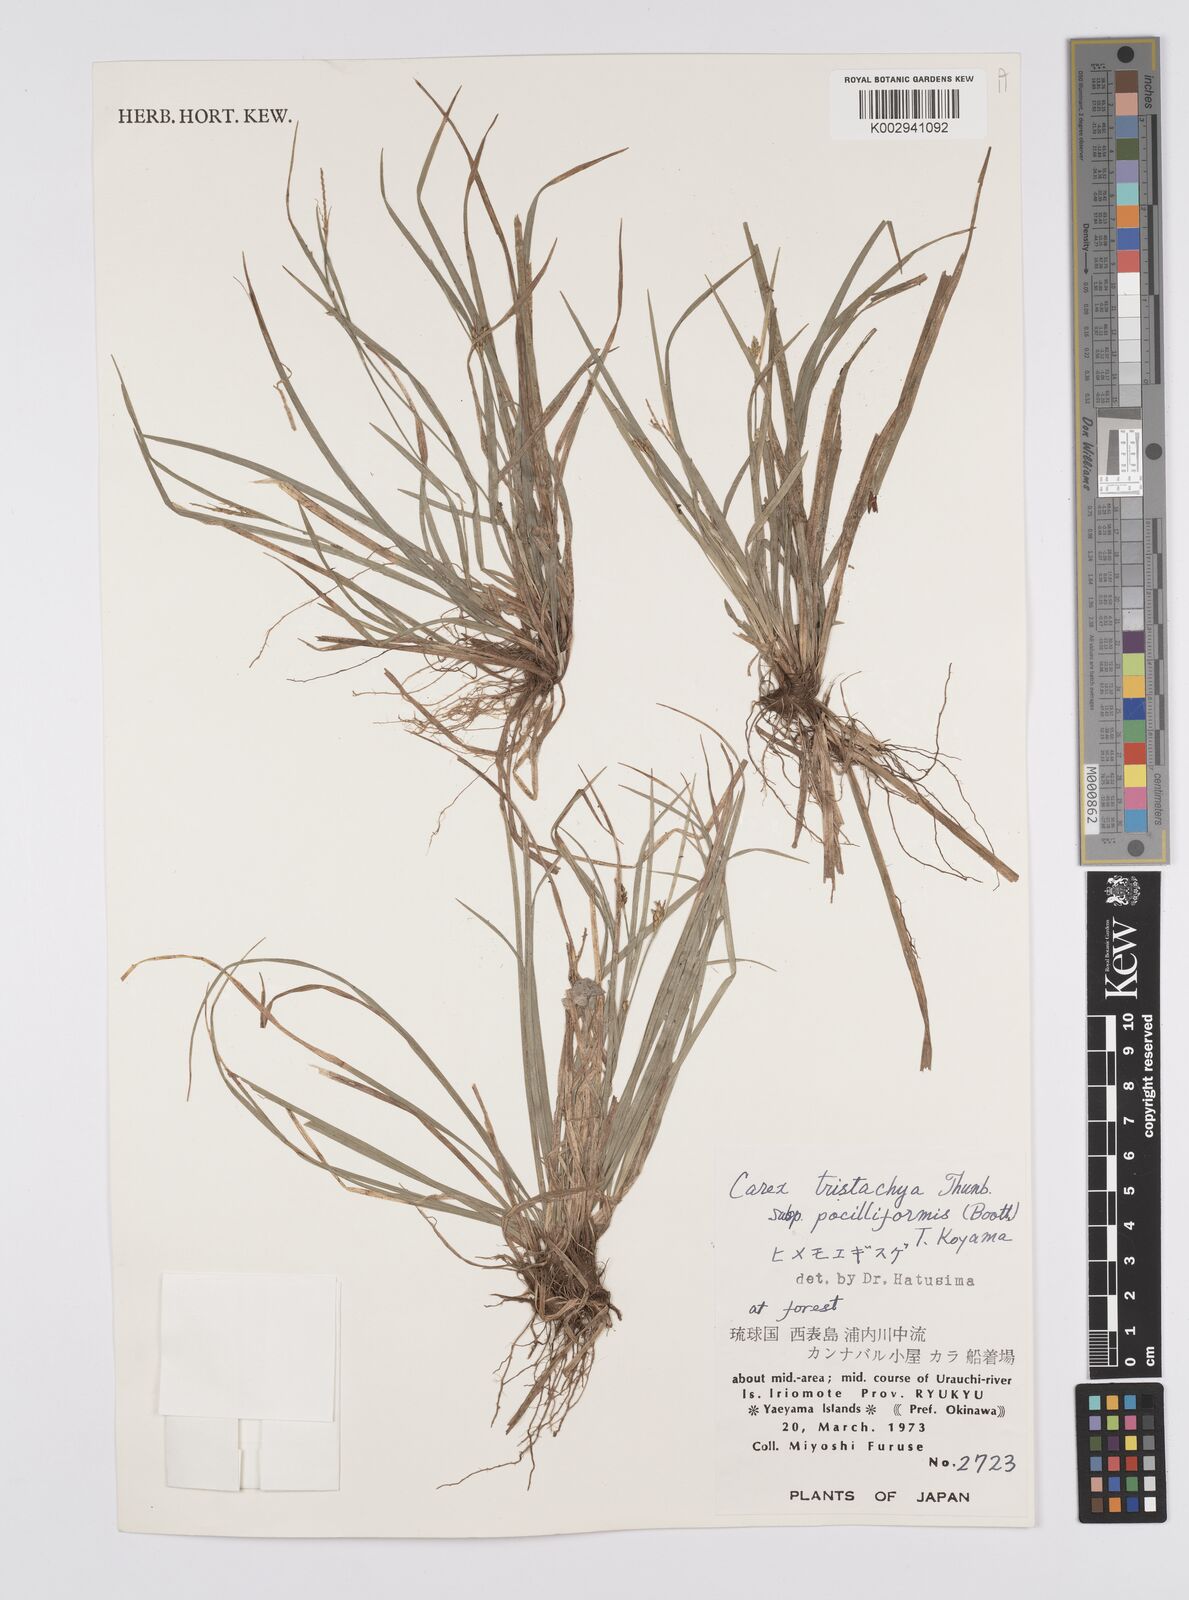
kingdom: Plantae
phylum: Tracheophyta
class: Liliopsida
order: Poales
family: Cyperaceae
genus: Carex
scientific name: Carex tristachya
